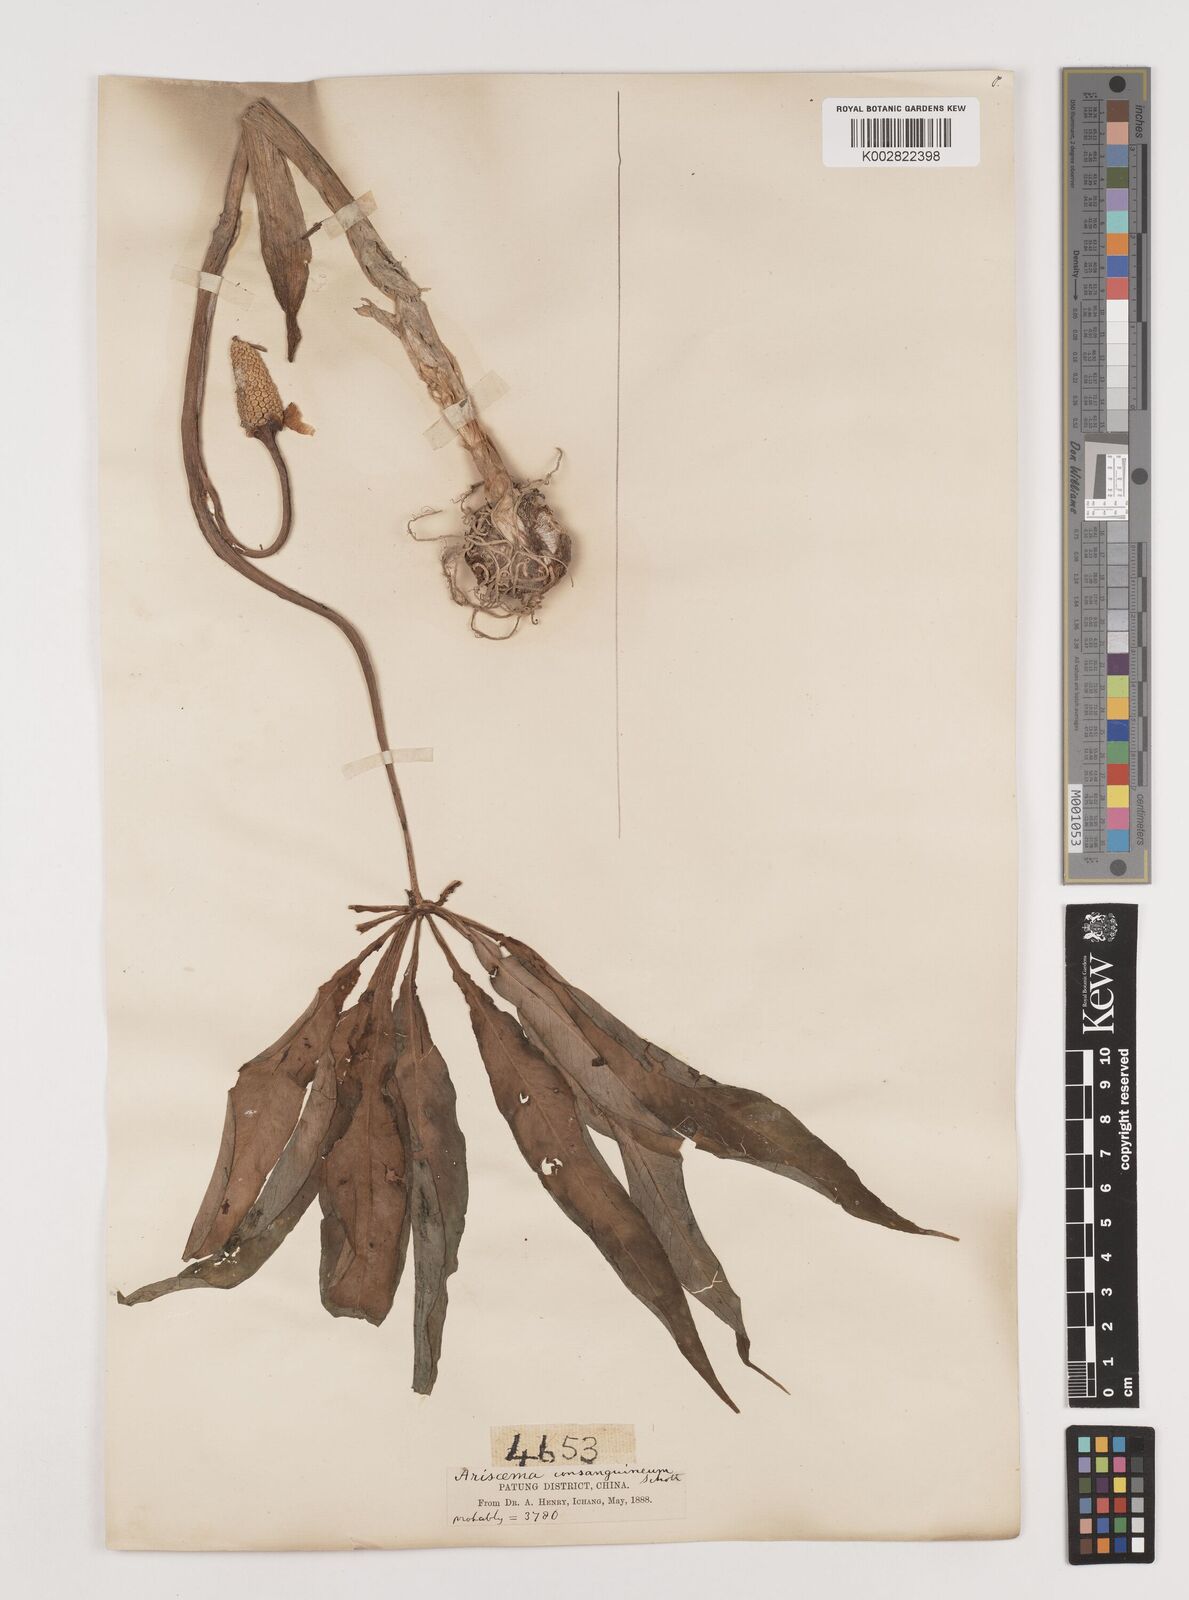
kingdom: Plantae
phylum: Tracheophyta
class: Liliopsida
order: Alismatales
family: Araceae
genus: Arisaema
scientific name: Arisaema erubescens
